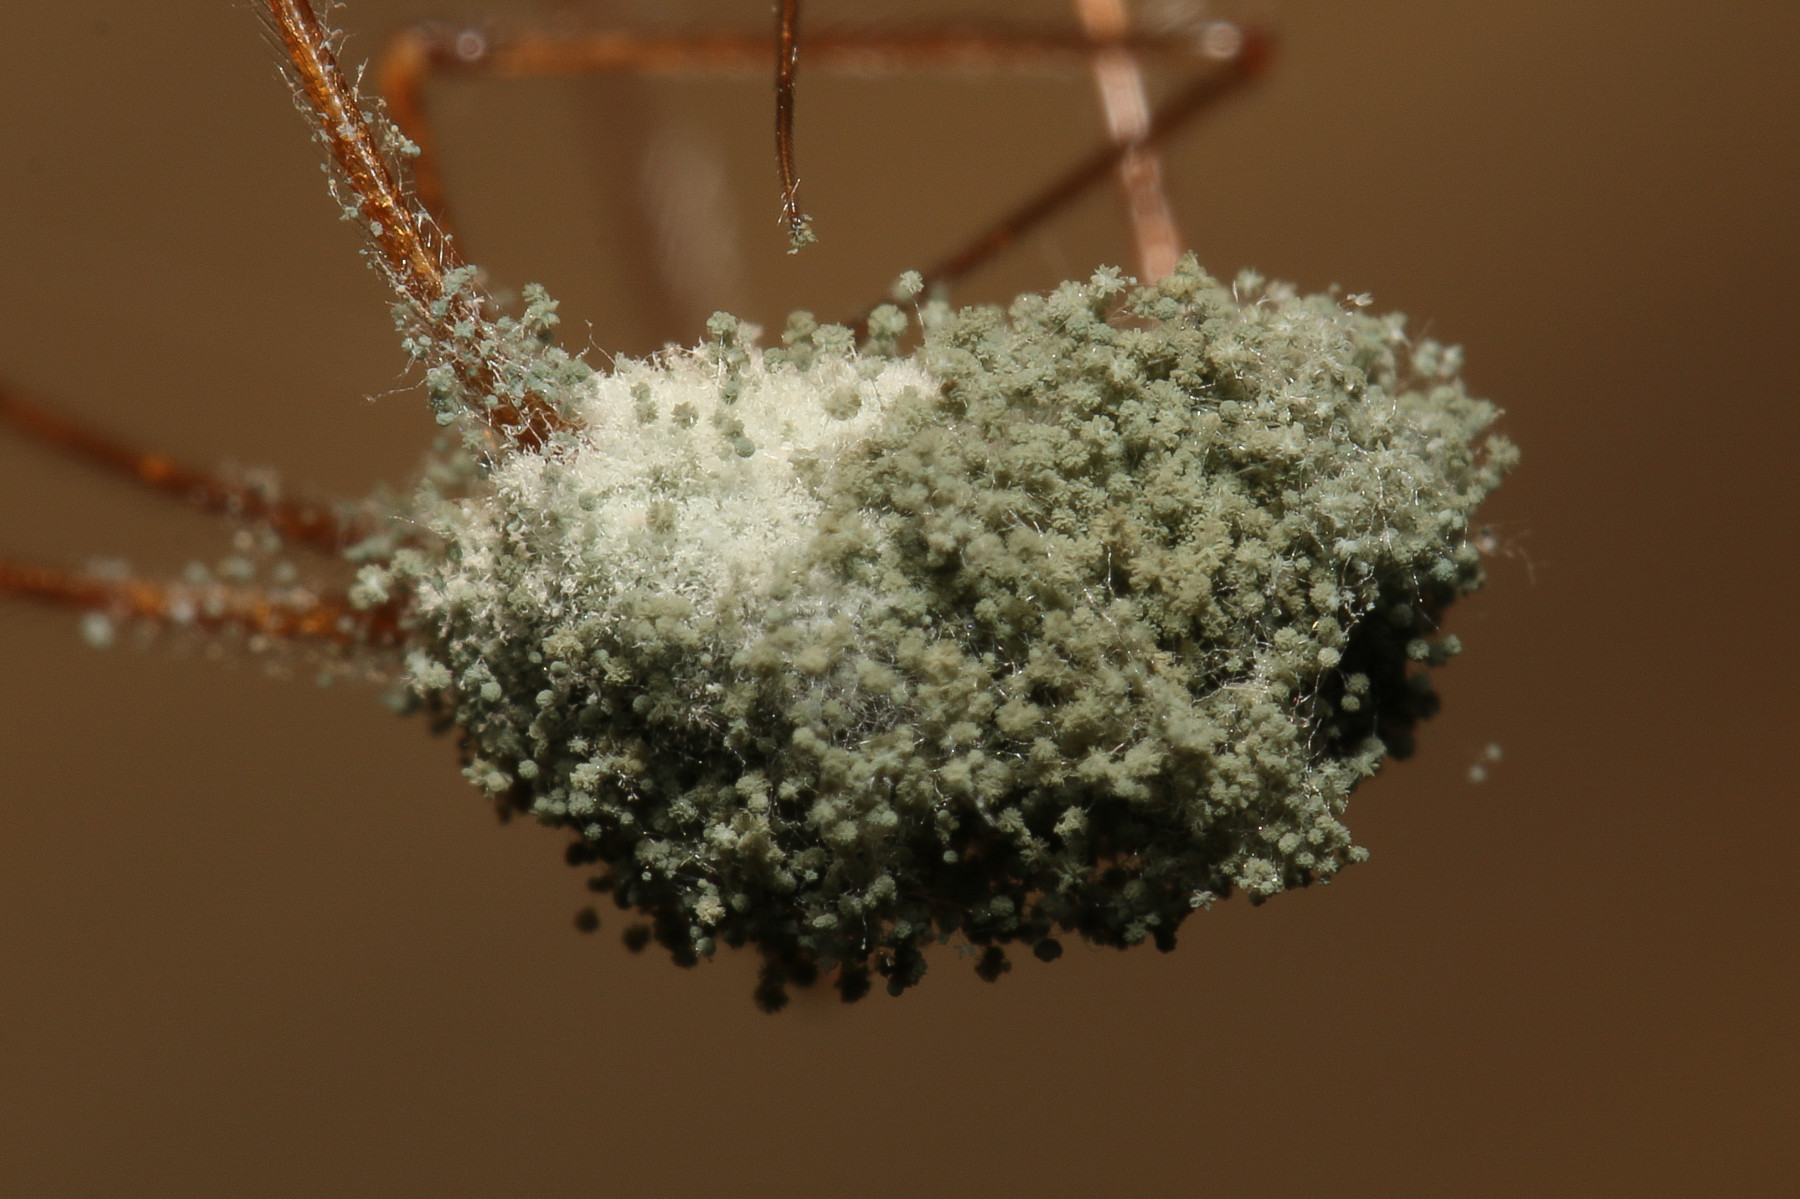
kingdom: Fungi
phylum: Ascomycota
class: Sordariomycetes
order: Hypocreales
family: Cordycipitaceae
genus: Lecanicillium
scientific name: Lecanicillium tenuipes
